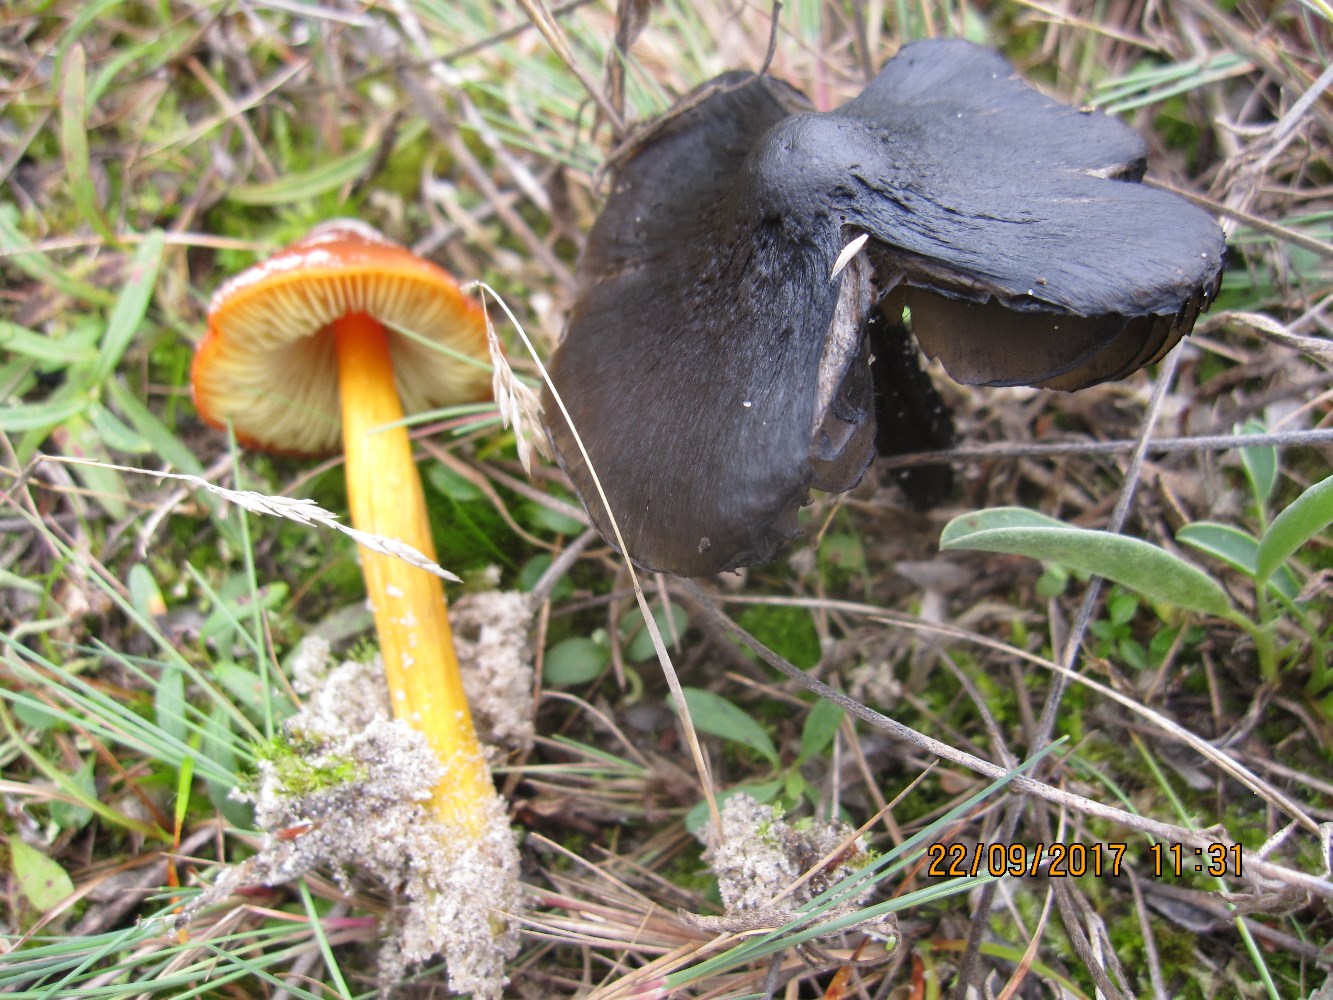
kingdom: Fungi
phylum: Basidiomycota
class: Agaricomycetes
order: Agaricales
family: Hygrophoraceae
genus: Hygrocybe
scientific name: Hygrocybe conica
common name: kegle-vokshat
